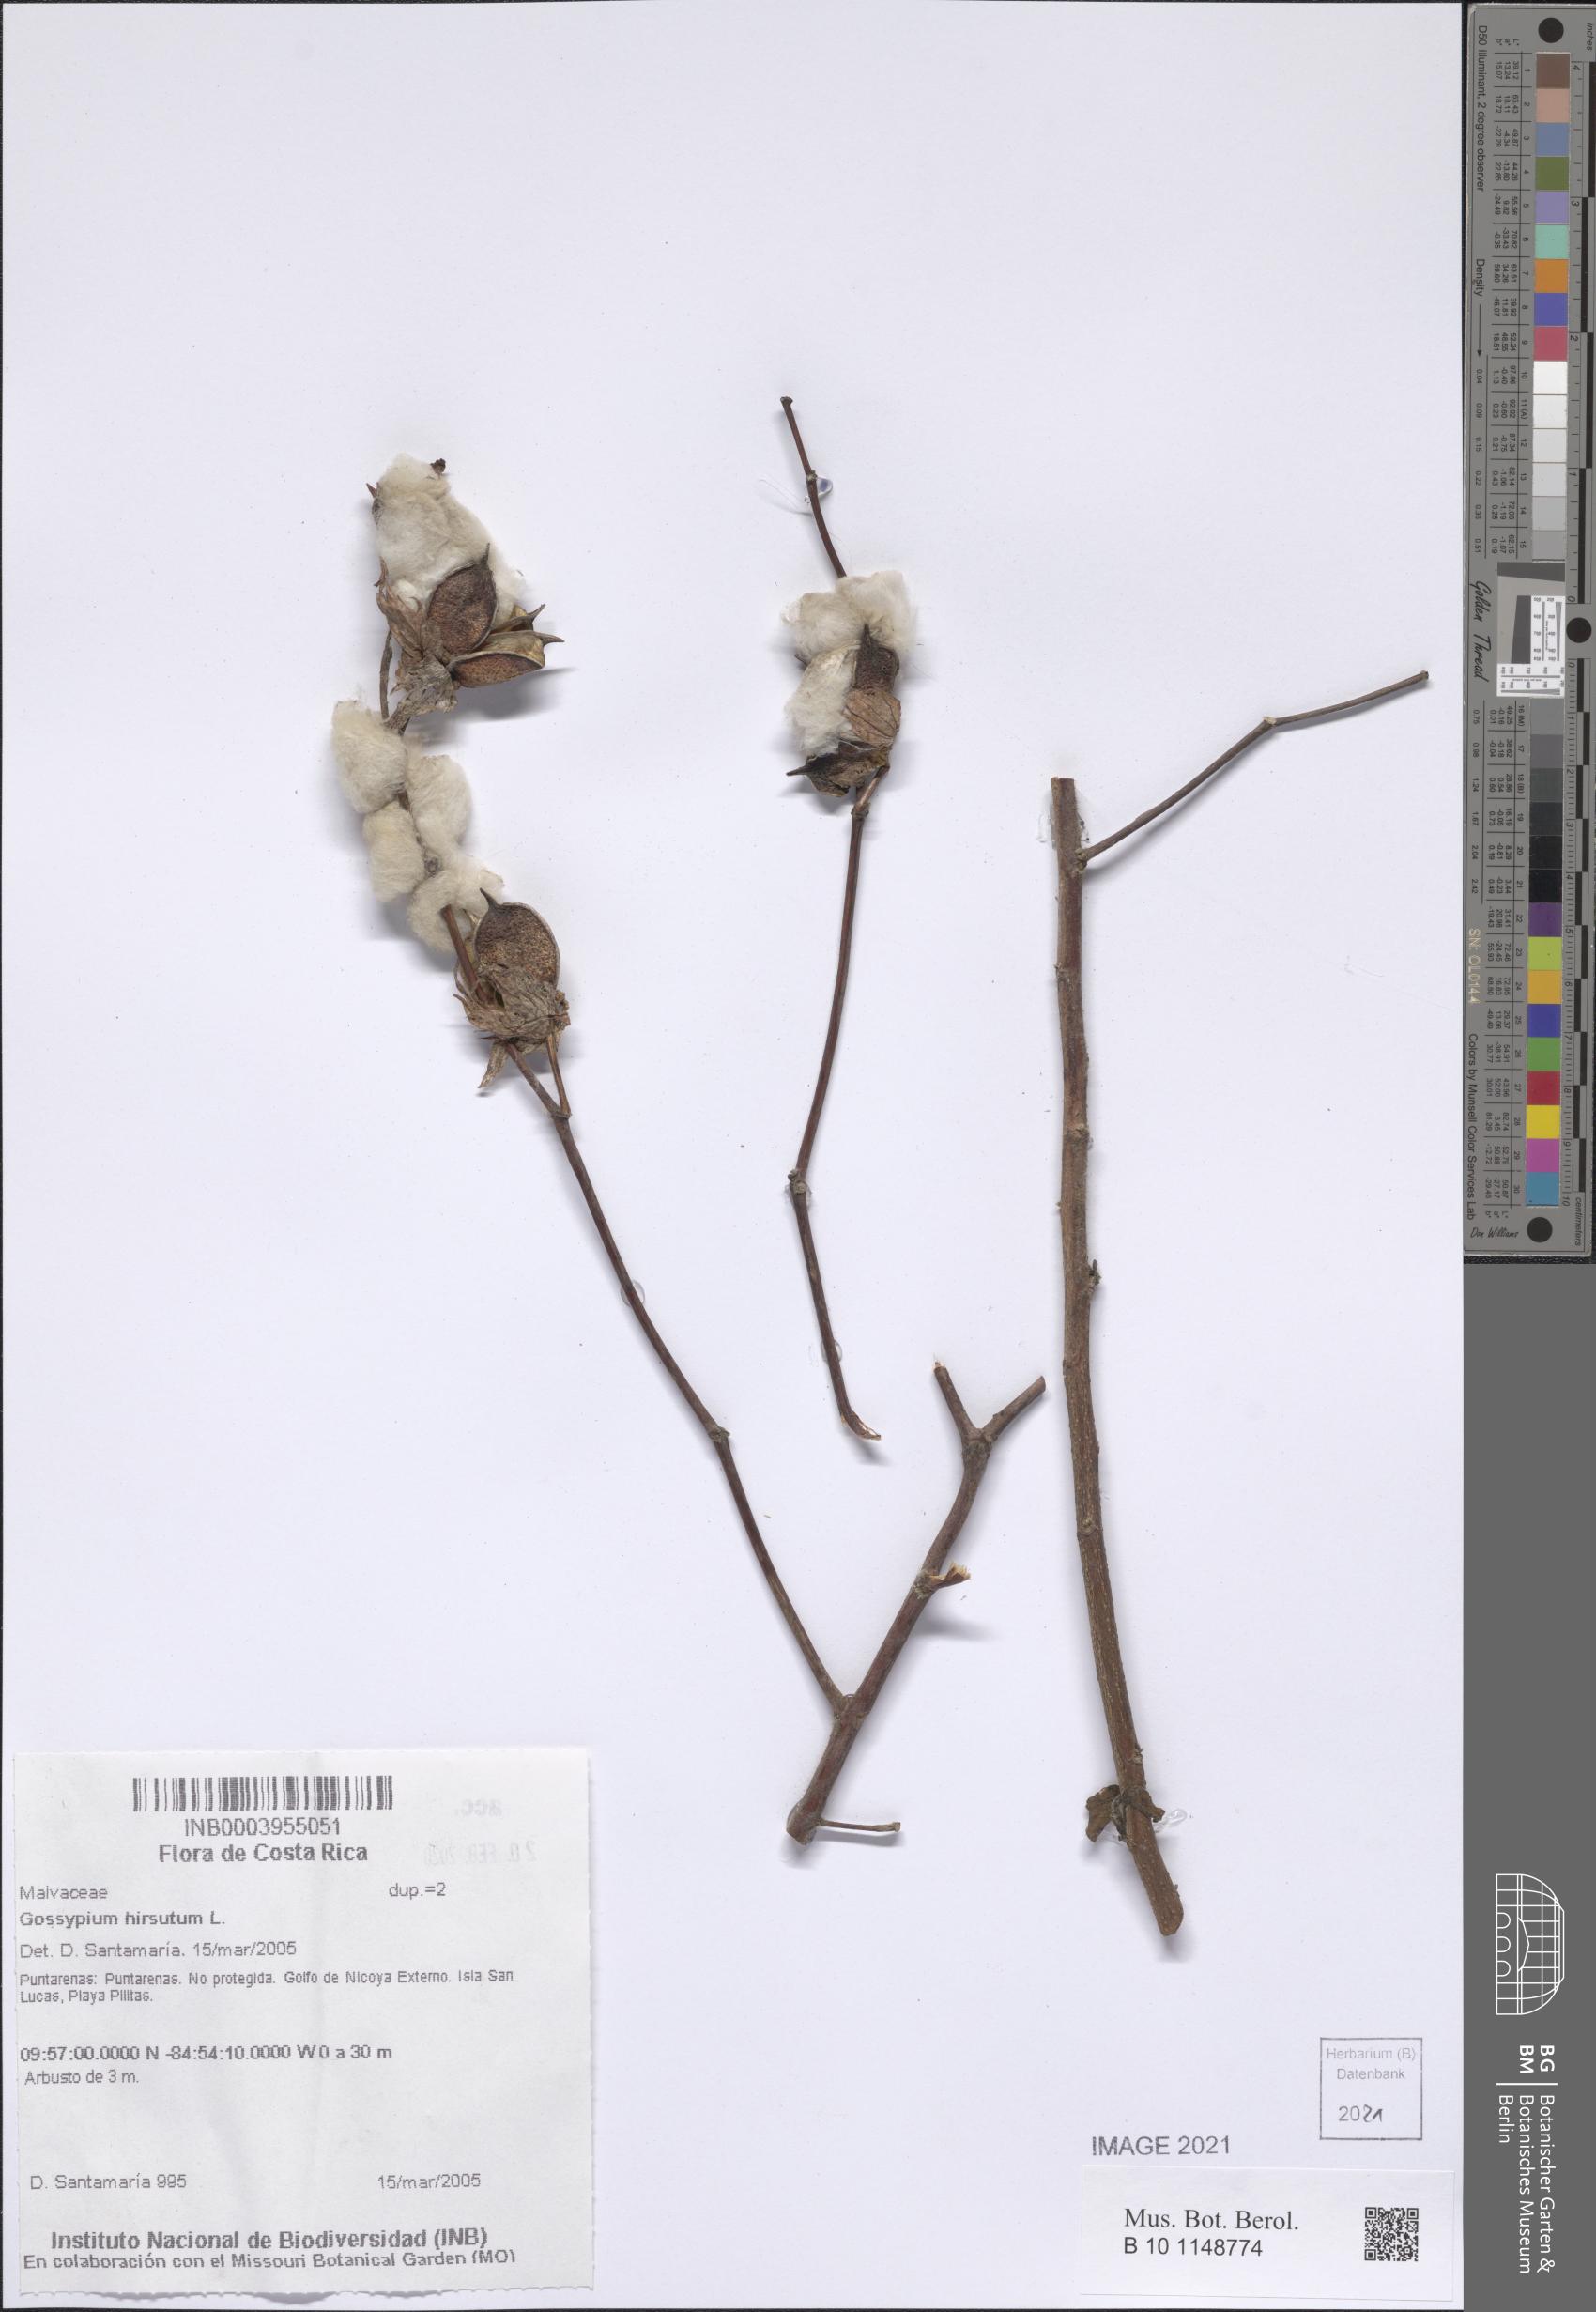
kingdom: Plantae
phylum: Tracheophyta
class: Magnoliopsida
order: Malvales
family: Malvaceae
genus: Gossypium
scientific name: Gossypium hirsutum
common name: Cotton
